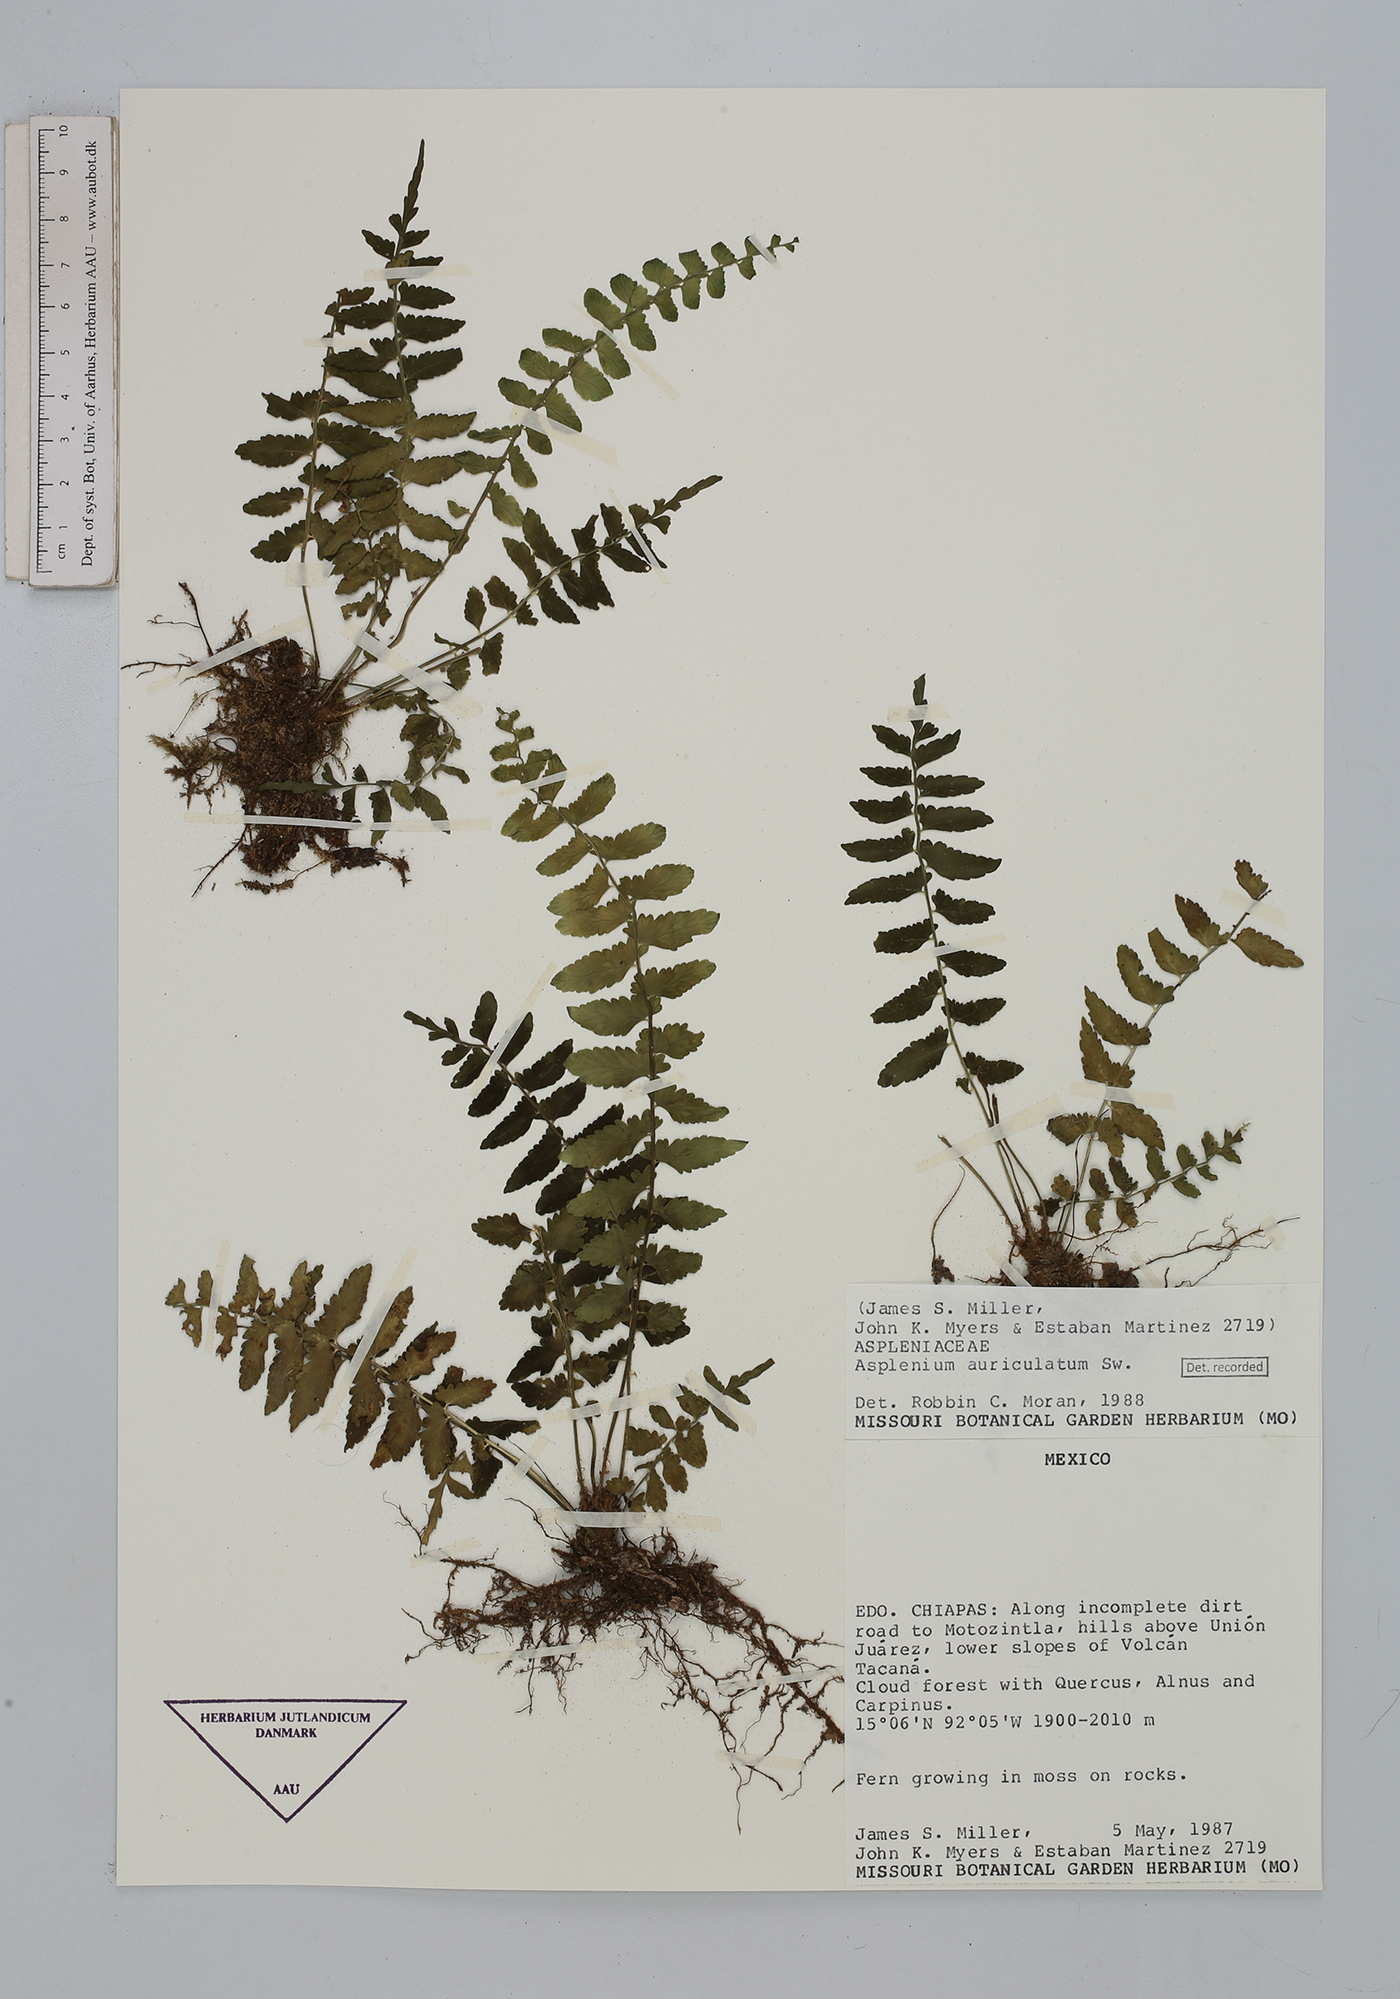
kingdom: Plantae
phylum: Tracheophyta
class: Polypodiopsida
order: Polypodiales
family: Aspleniaceae
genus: Asplenium
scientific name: Asplenium auriculatum
